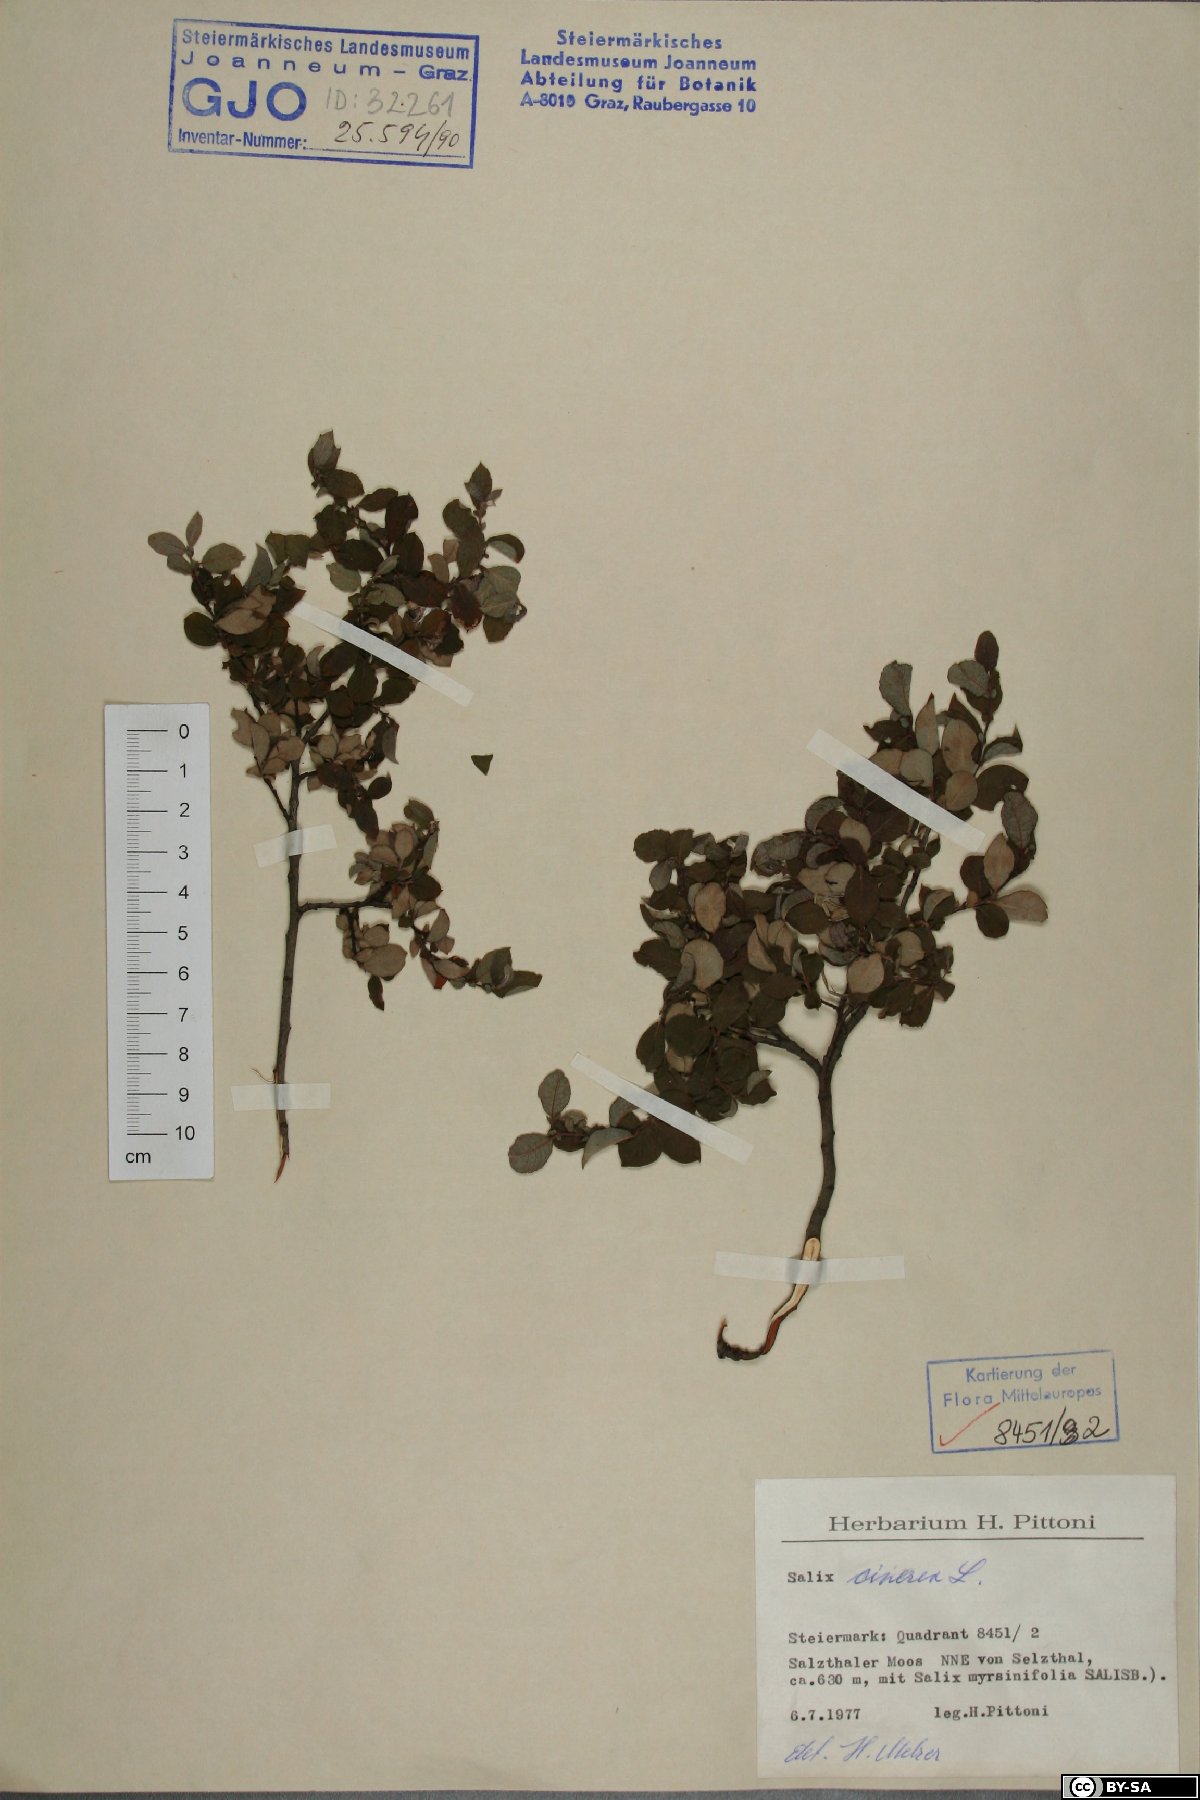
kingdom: Plantae
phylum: Tracheophyta
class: Magnoliopsida
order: Malpighiales
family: Salicaceae
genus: Salix
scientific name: Salix cinerea
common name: Common sallow
